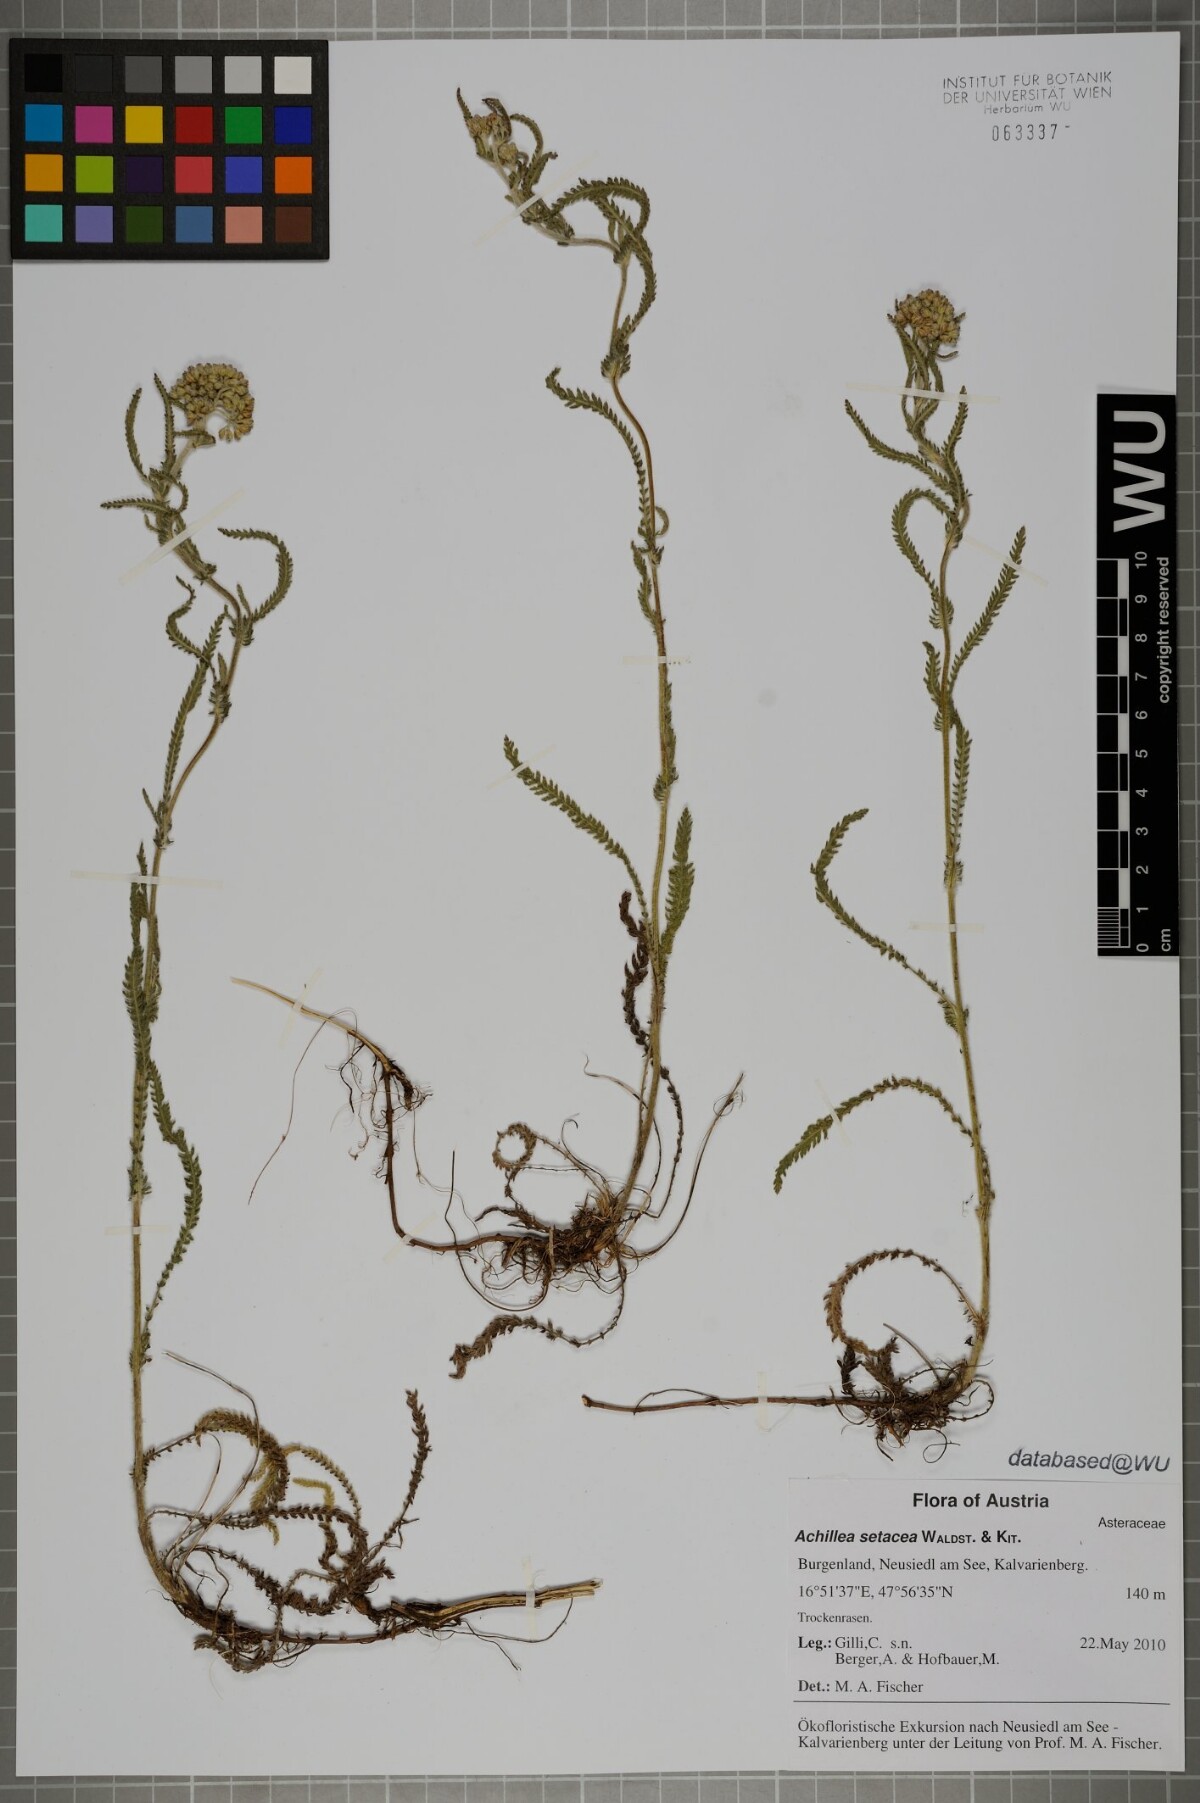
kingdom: Plantae
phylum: Tracheophyta
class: Magnoliopsida
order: Asterales
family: Asteraceae
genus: Achillea
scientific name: Achillea setacea
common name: Bristly yarrow
